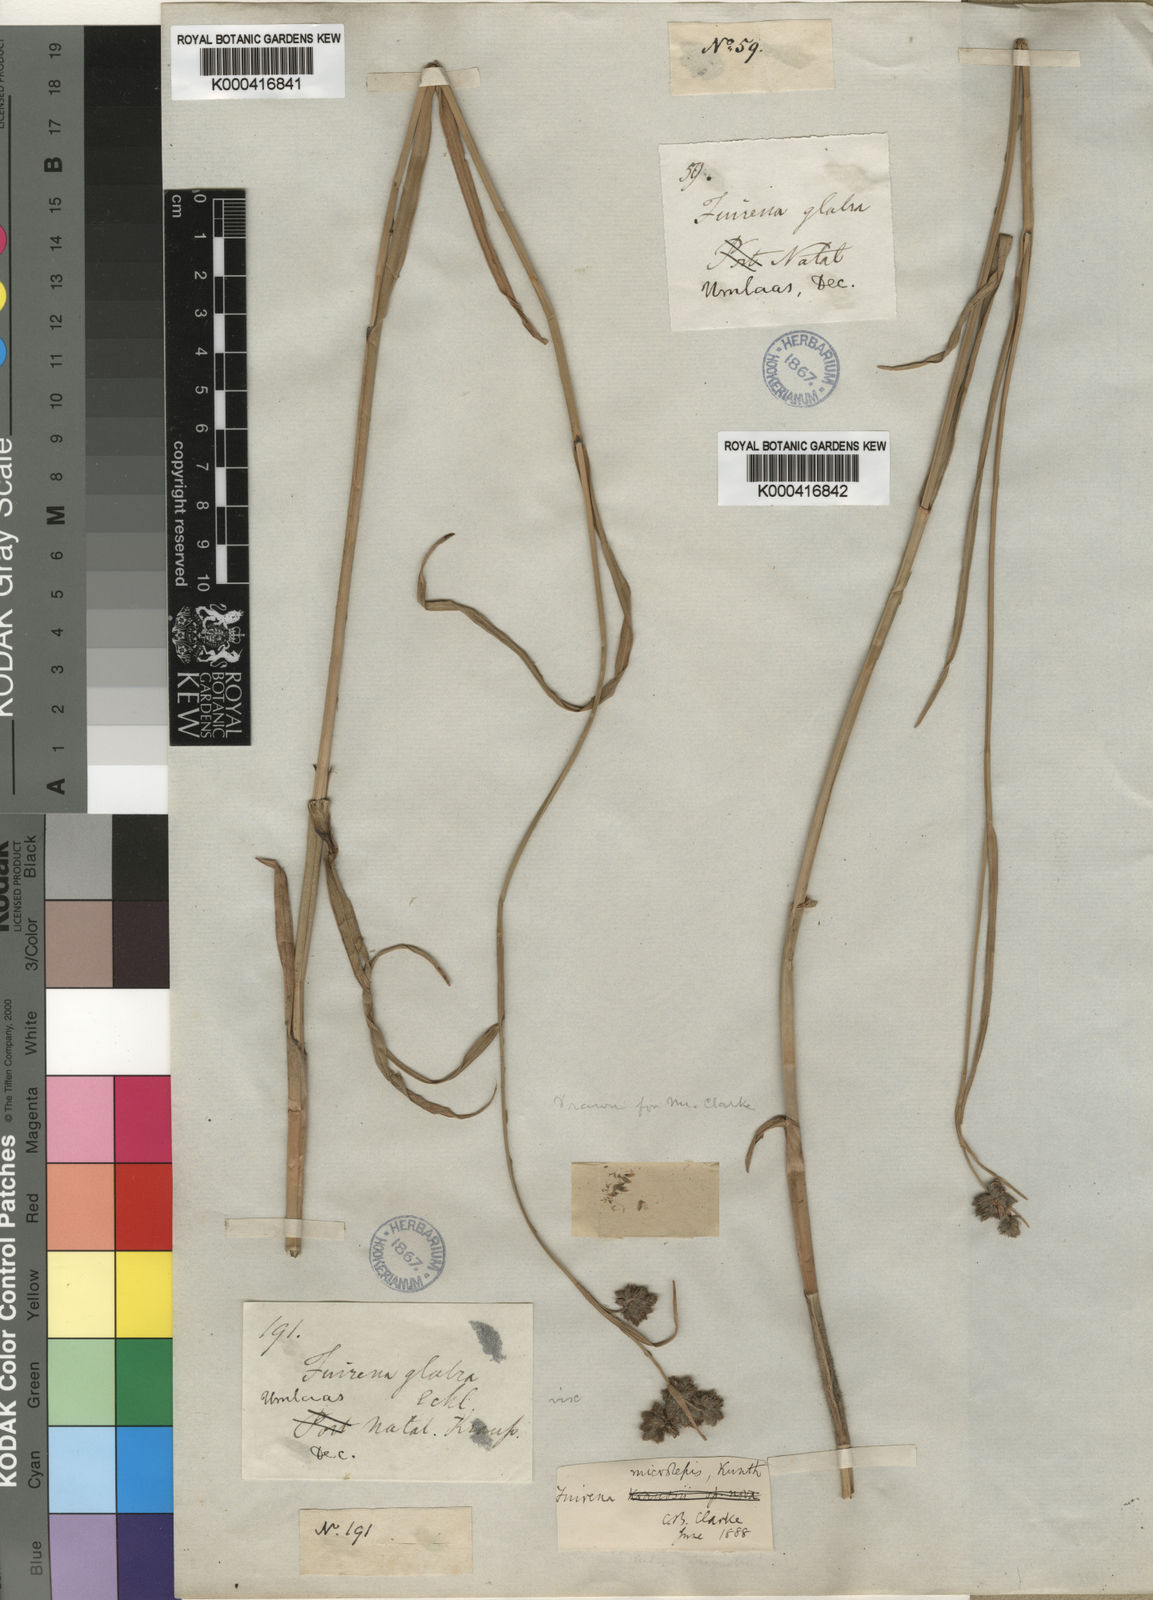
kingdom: Plantae
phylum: Tracheophyta
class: Liliopsida
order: Poales
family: Cyperaceae
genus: Fuirena
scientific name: Fuirena obcordata
